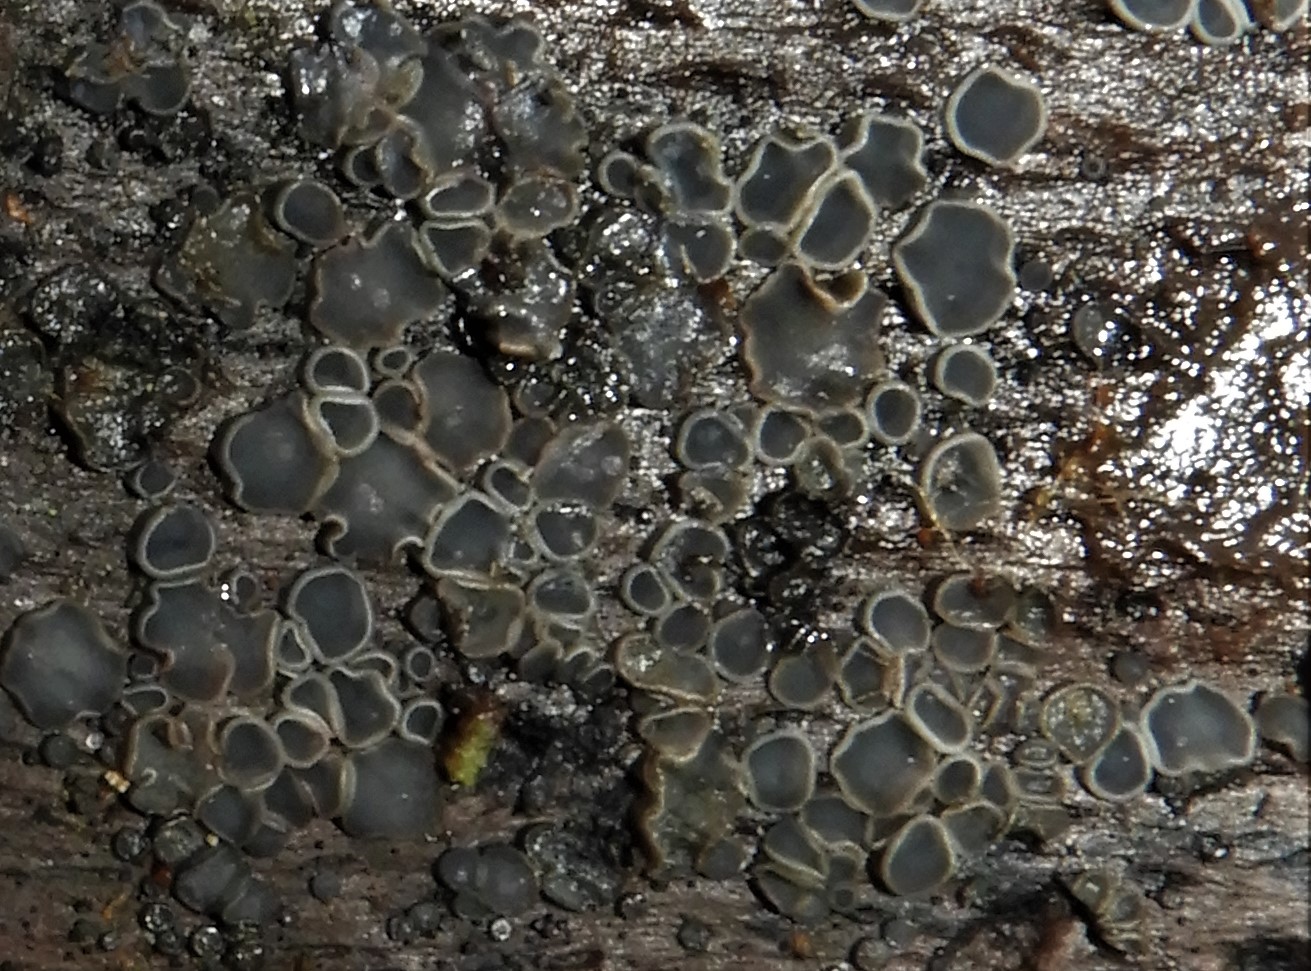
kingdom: Fungi
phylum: Ascomycota
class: Leotiomycetes
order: Helotiales
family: Mollisiaceae
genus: Mollisia
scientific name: Mollisia cinerea
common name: almindelig gråskive
